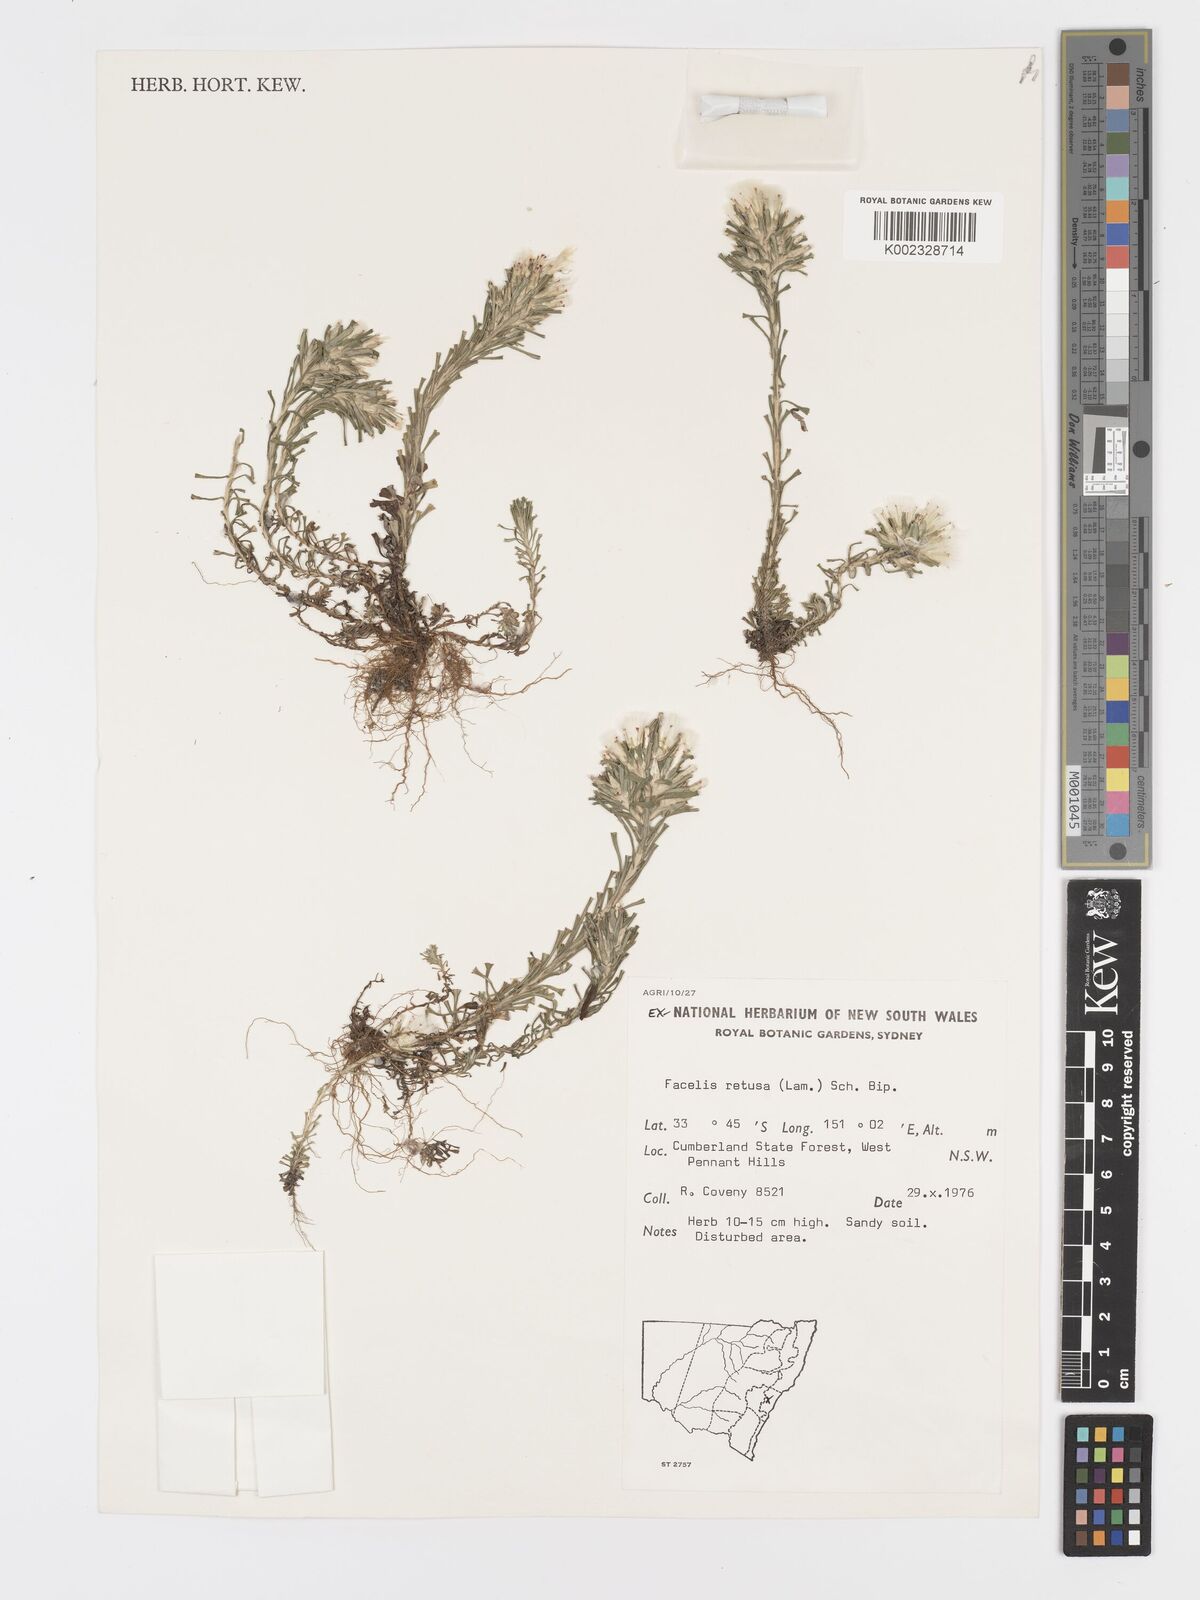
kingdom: Plantae
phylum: Tracheophyta
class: Magnoliopsida
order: Asterales
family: Asteraceae
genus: Facelis
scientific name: Facelis retusa
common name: Annual trampweed
